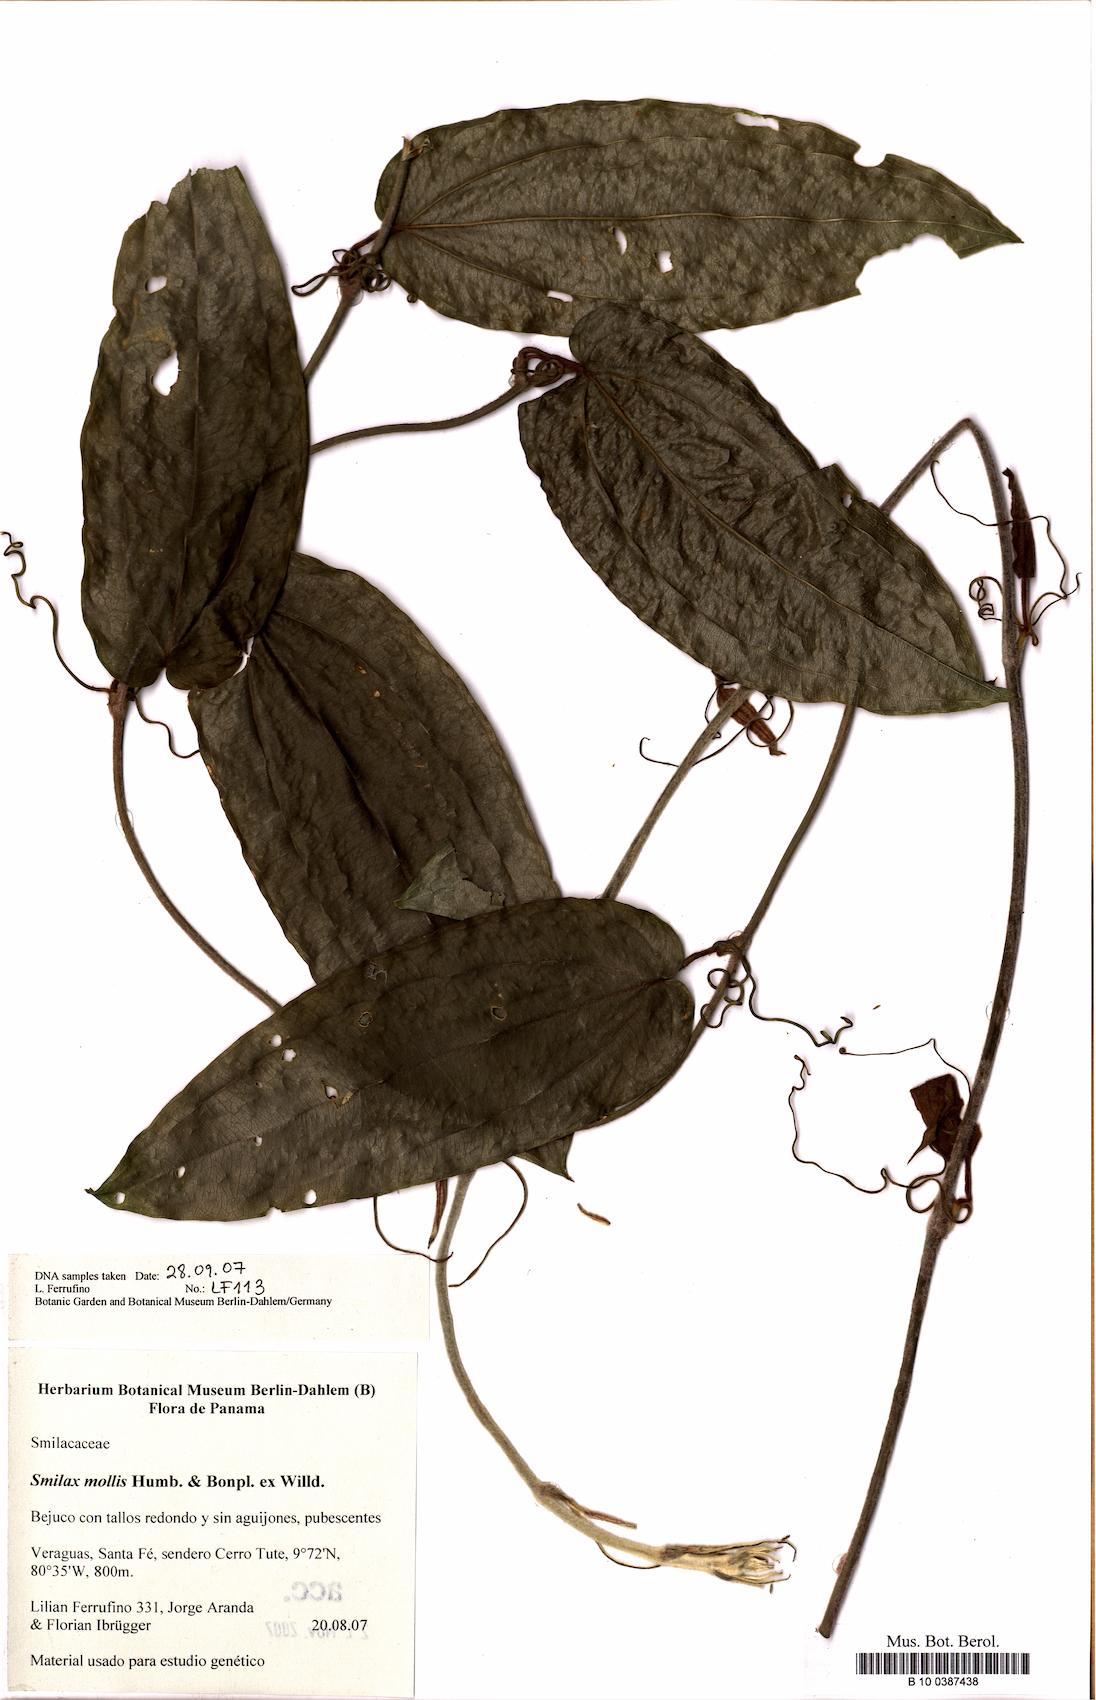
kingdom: Plantae
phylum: Tracheophyta
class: Liliopsida
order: Liliales
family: Smilacaceae
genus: Smilax
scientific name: Smilax mollis
